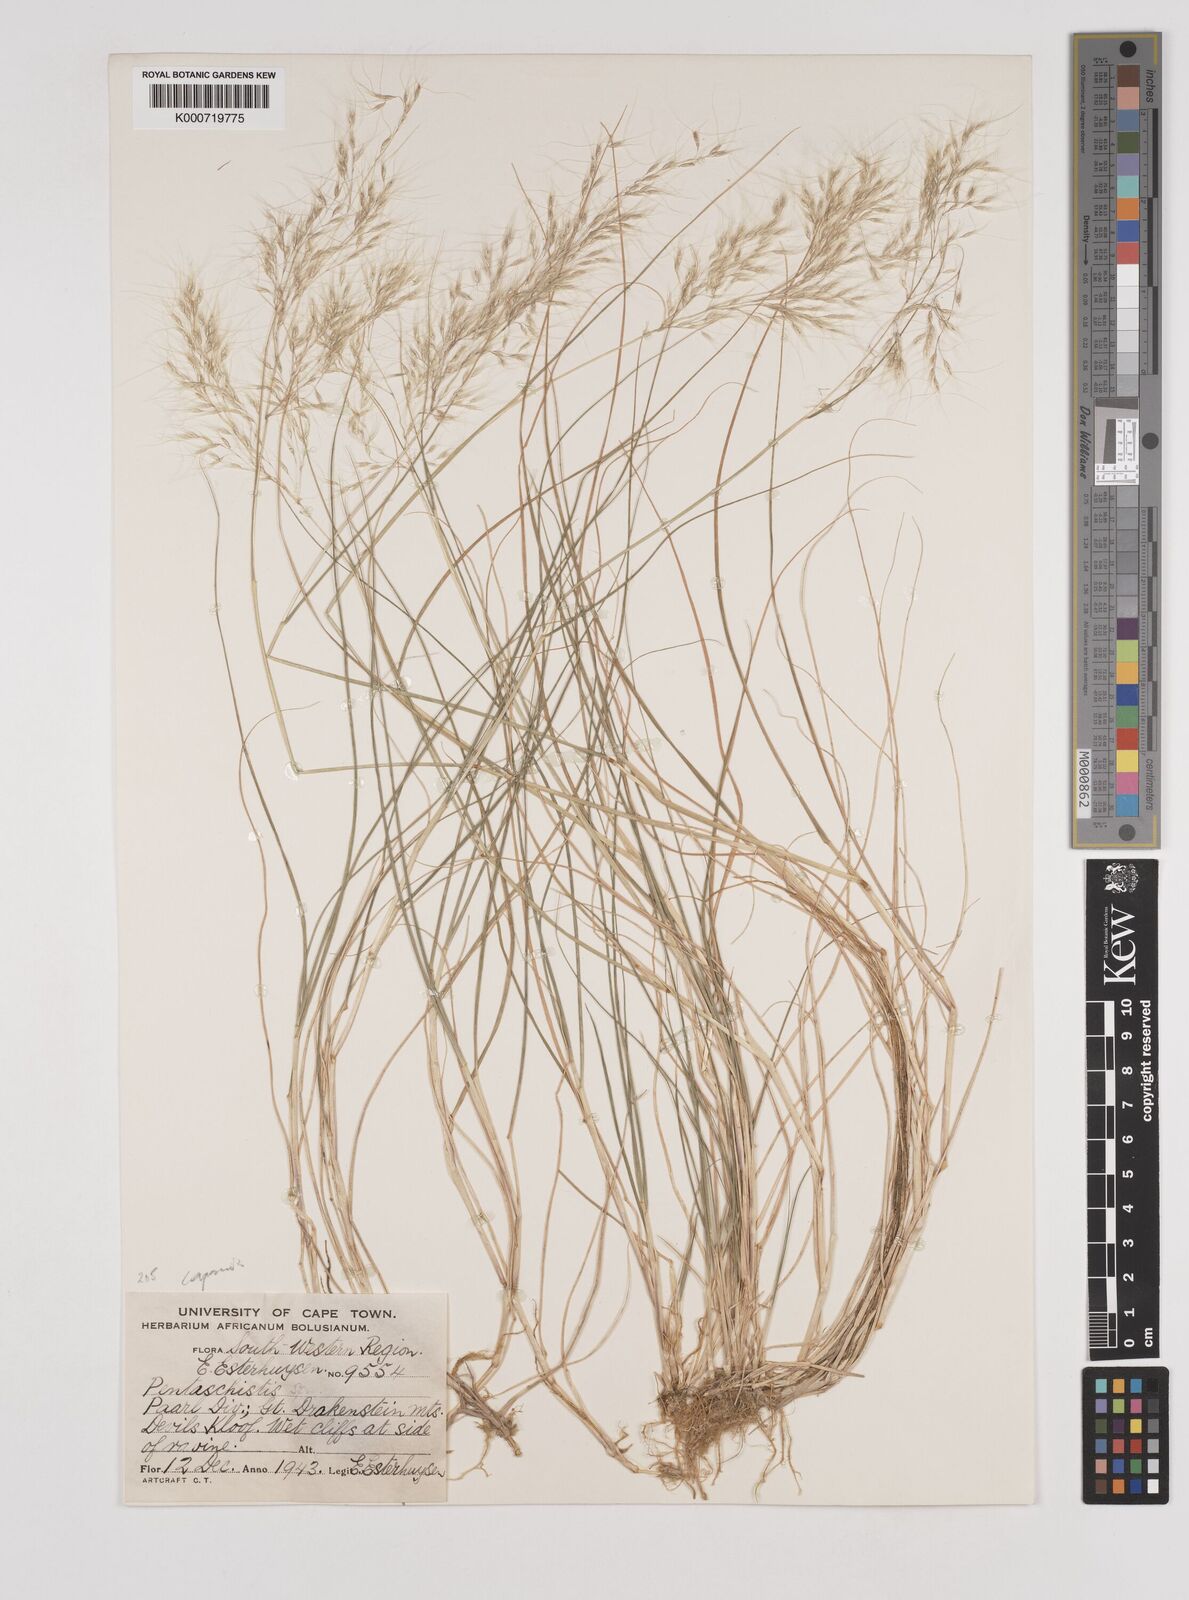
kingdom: Plantae
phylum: Tracheophyta
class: Liliopsida
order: Poales
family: Poaceae
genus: Pentameris
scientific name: Pentameris capensis
